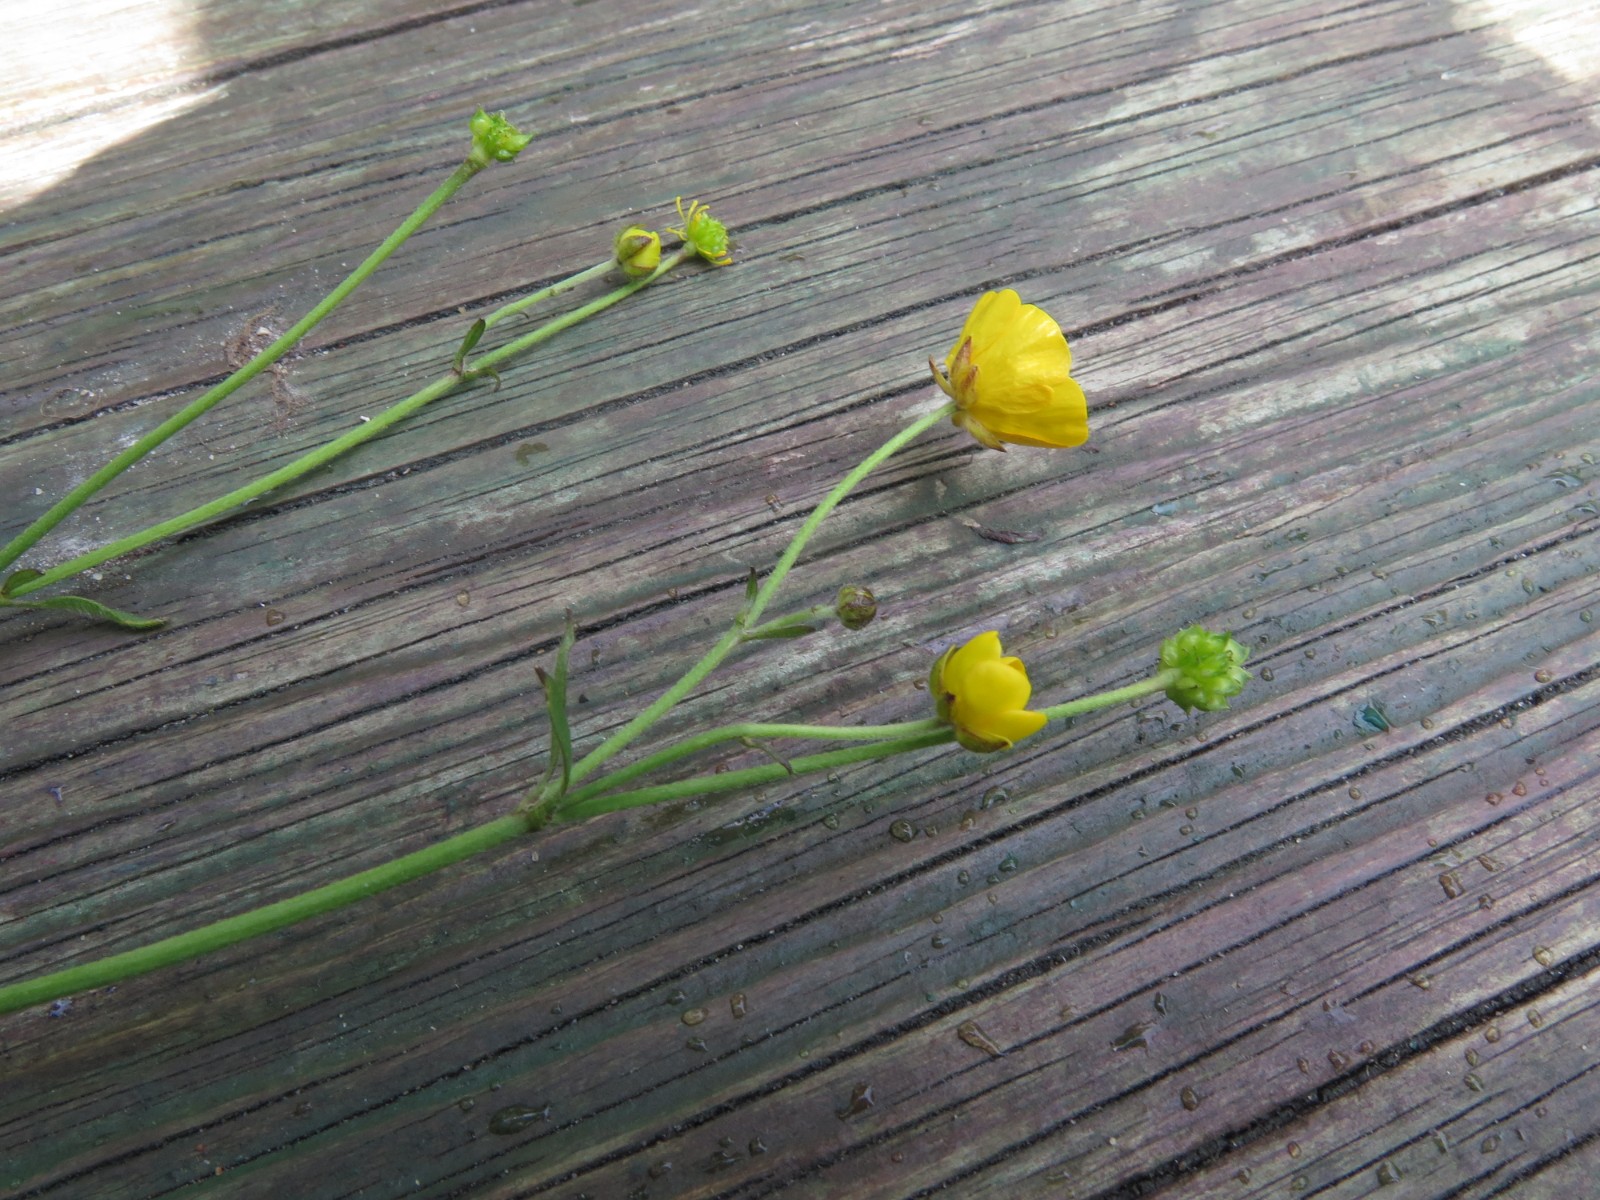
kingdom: Fungi
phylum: Basidiomycota
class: Pucciniomycetes
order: Pucciniales
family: Pucciniaceae
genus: Puccinia
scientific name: Puccinia recondita
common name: Brown rust of wheat
